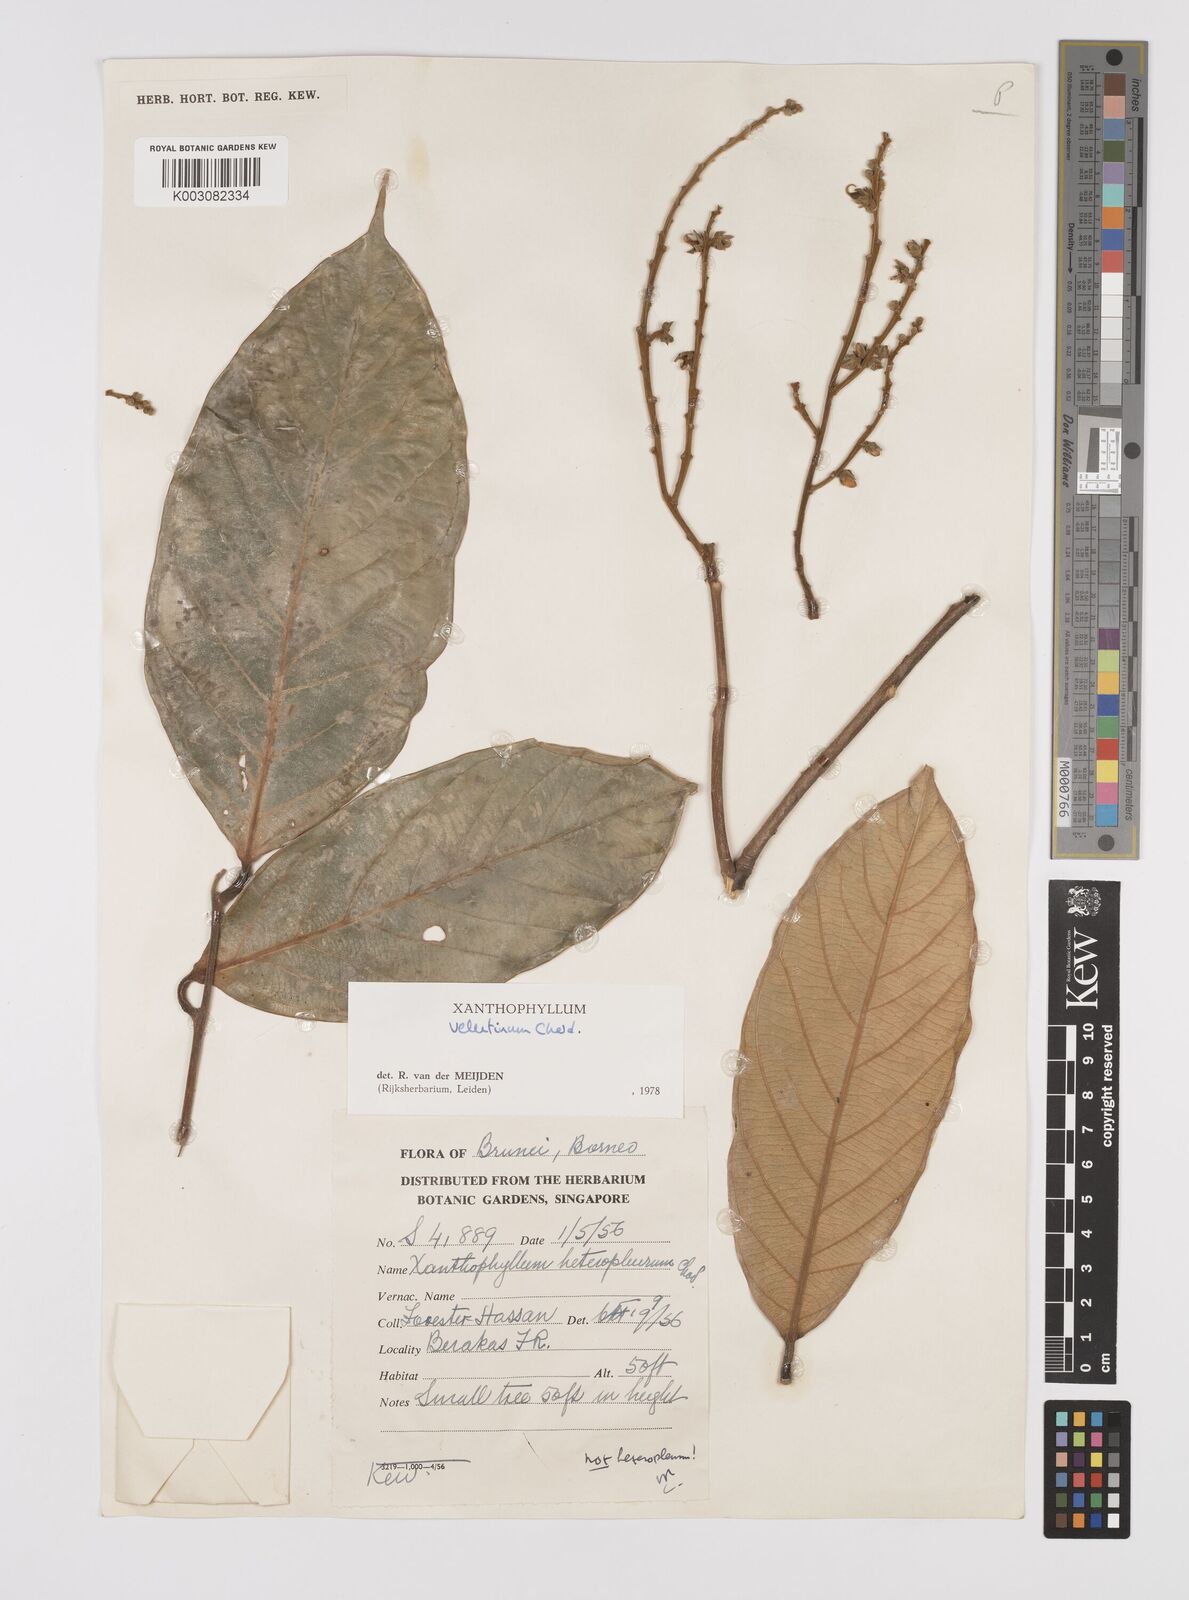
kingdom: Plantae
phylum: Tracheophyta
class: Magnoliopsida
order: Fabales
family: Polygalaceae
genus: Xanthophyllum
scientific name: Xanthophyllum velutinum
